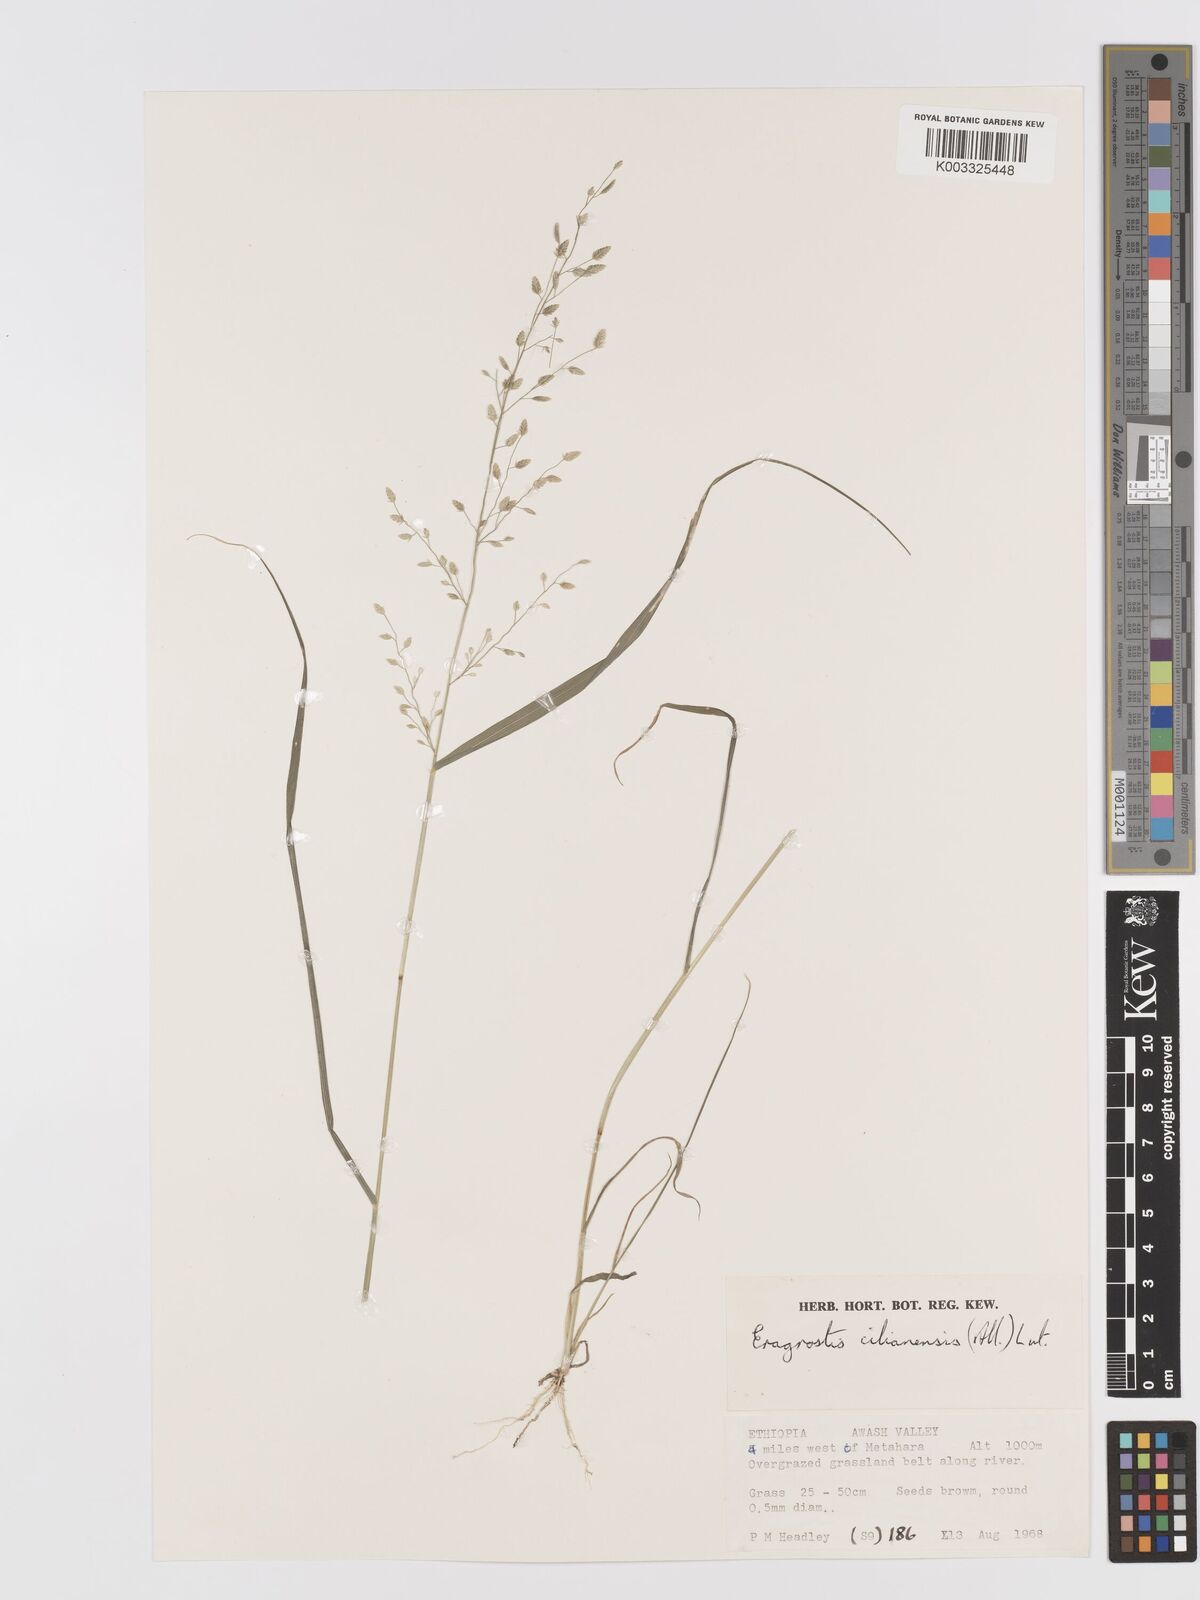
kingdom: Plantae
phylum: Tracheophyta
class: Liliopsida
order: Poales
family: Poaceae
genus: Eragrostis
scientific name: Eragrostis cilianensis
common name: Stinkgrass
